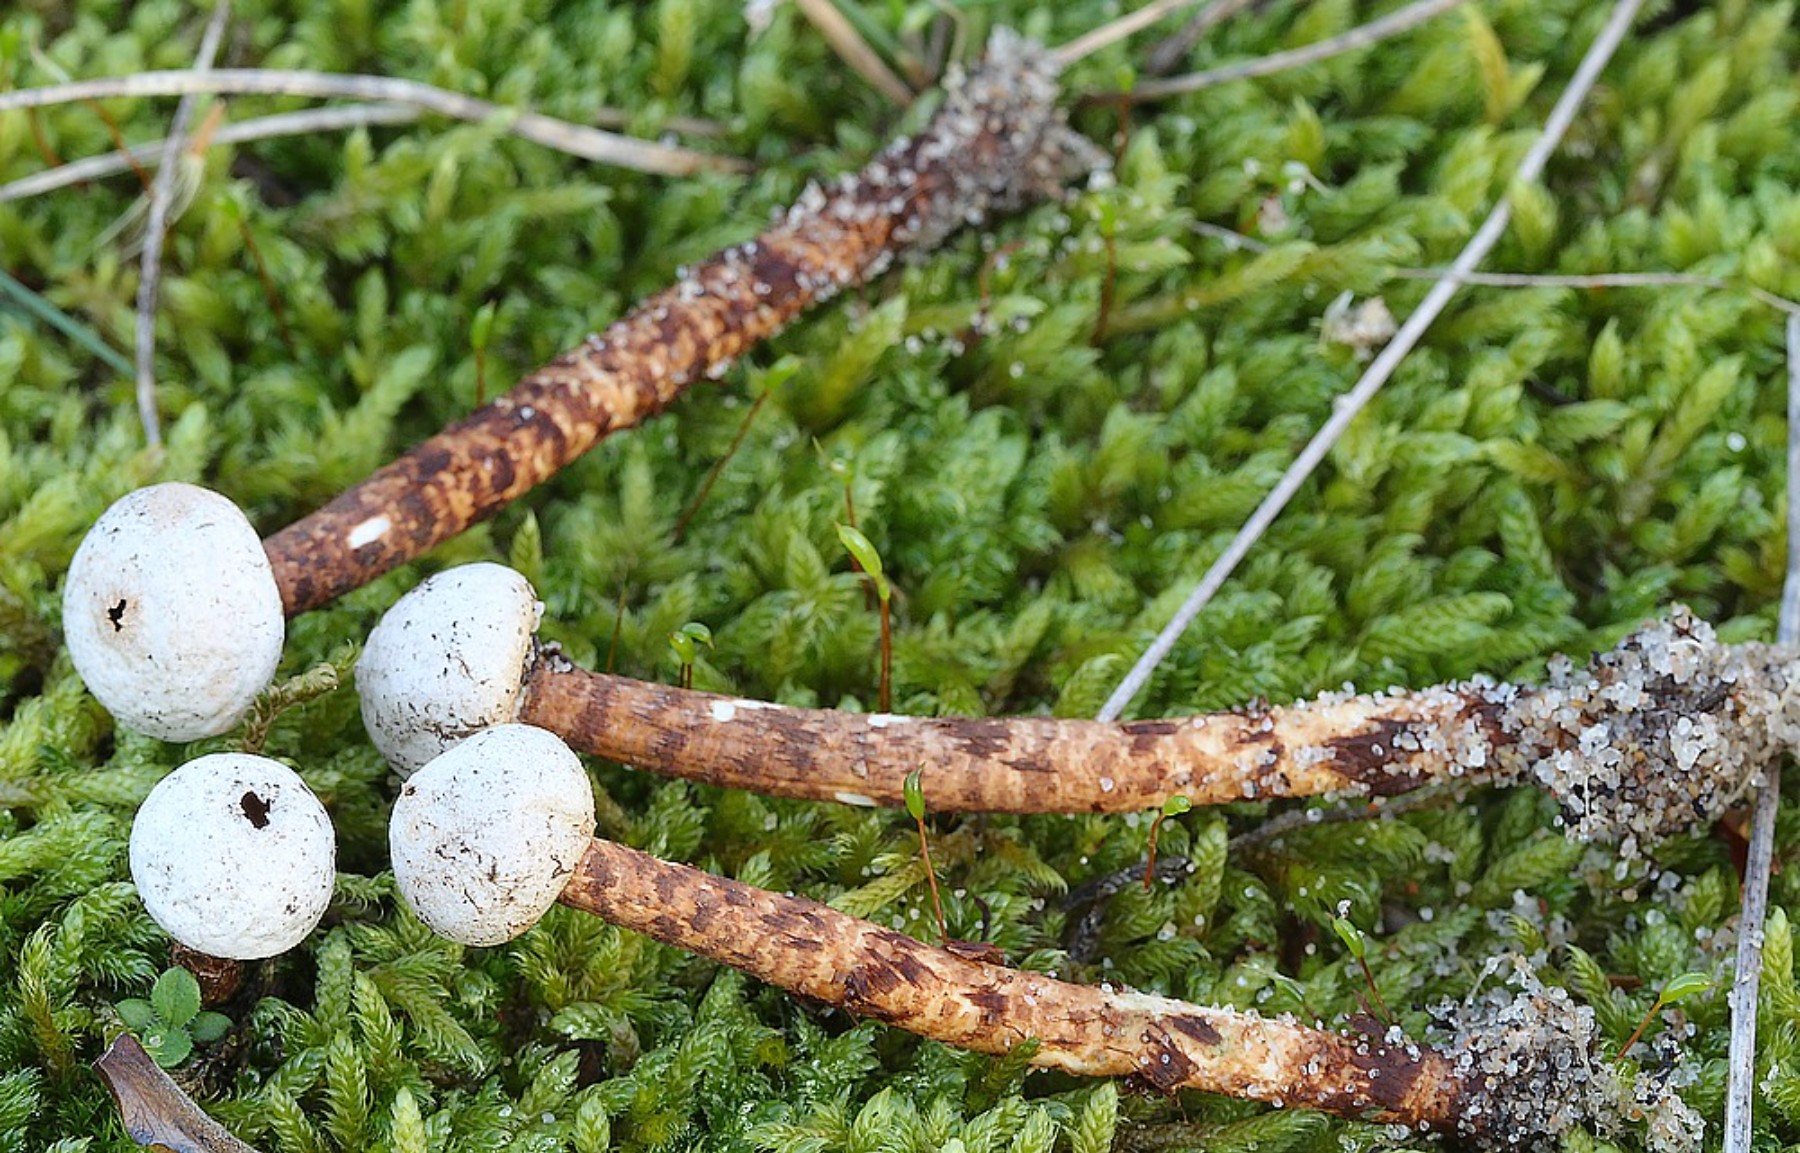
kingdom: Fungi
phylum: Basidiomycota
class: Agaricomycetes
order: Agaricales
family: Agaricaceae
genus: Tulostoma
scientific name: Tulostoma winterhoffii
